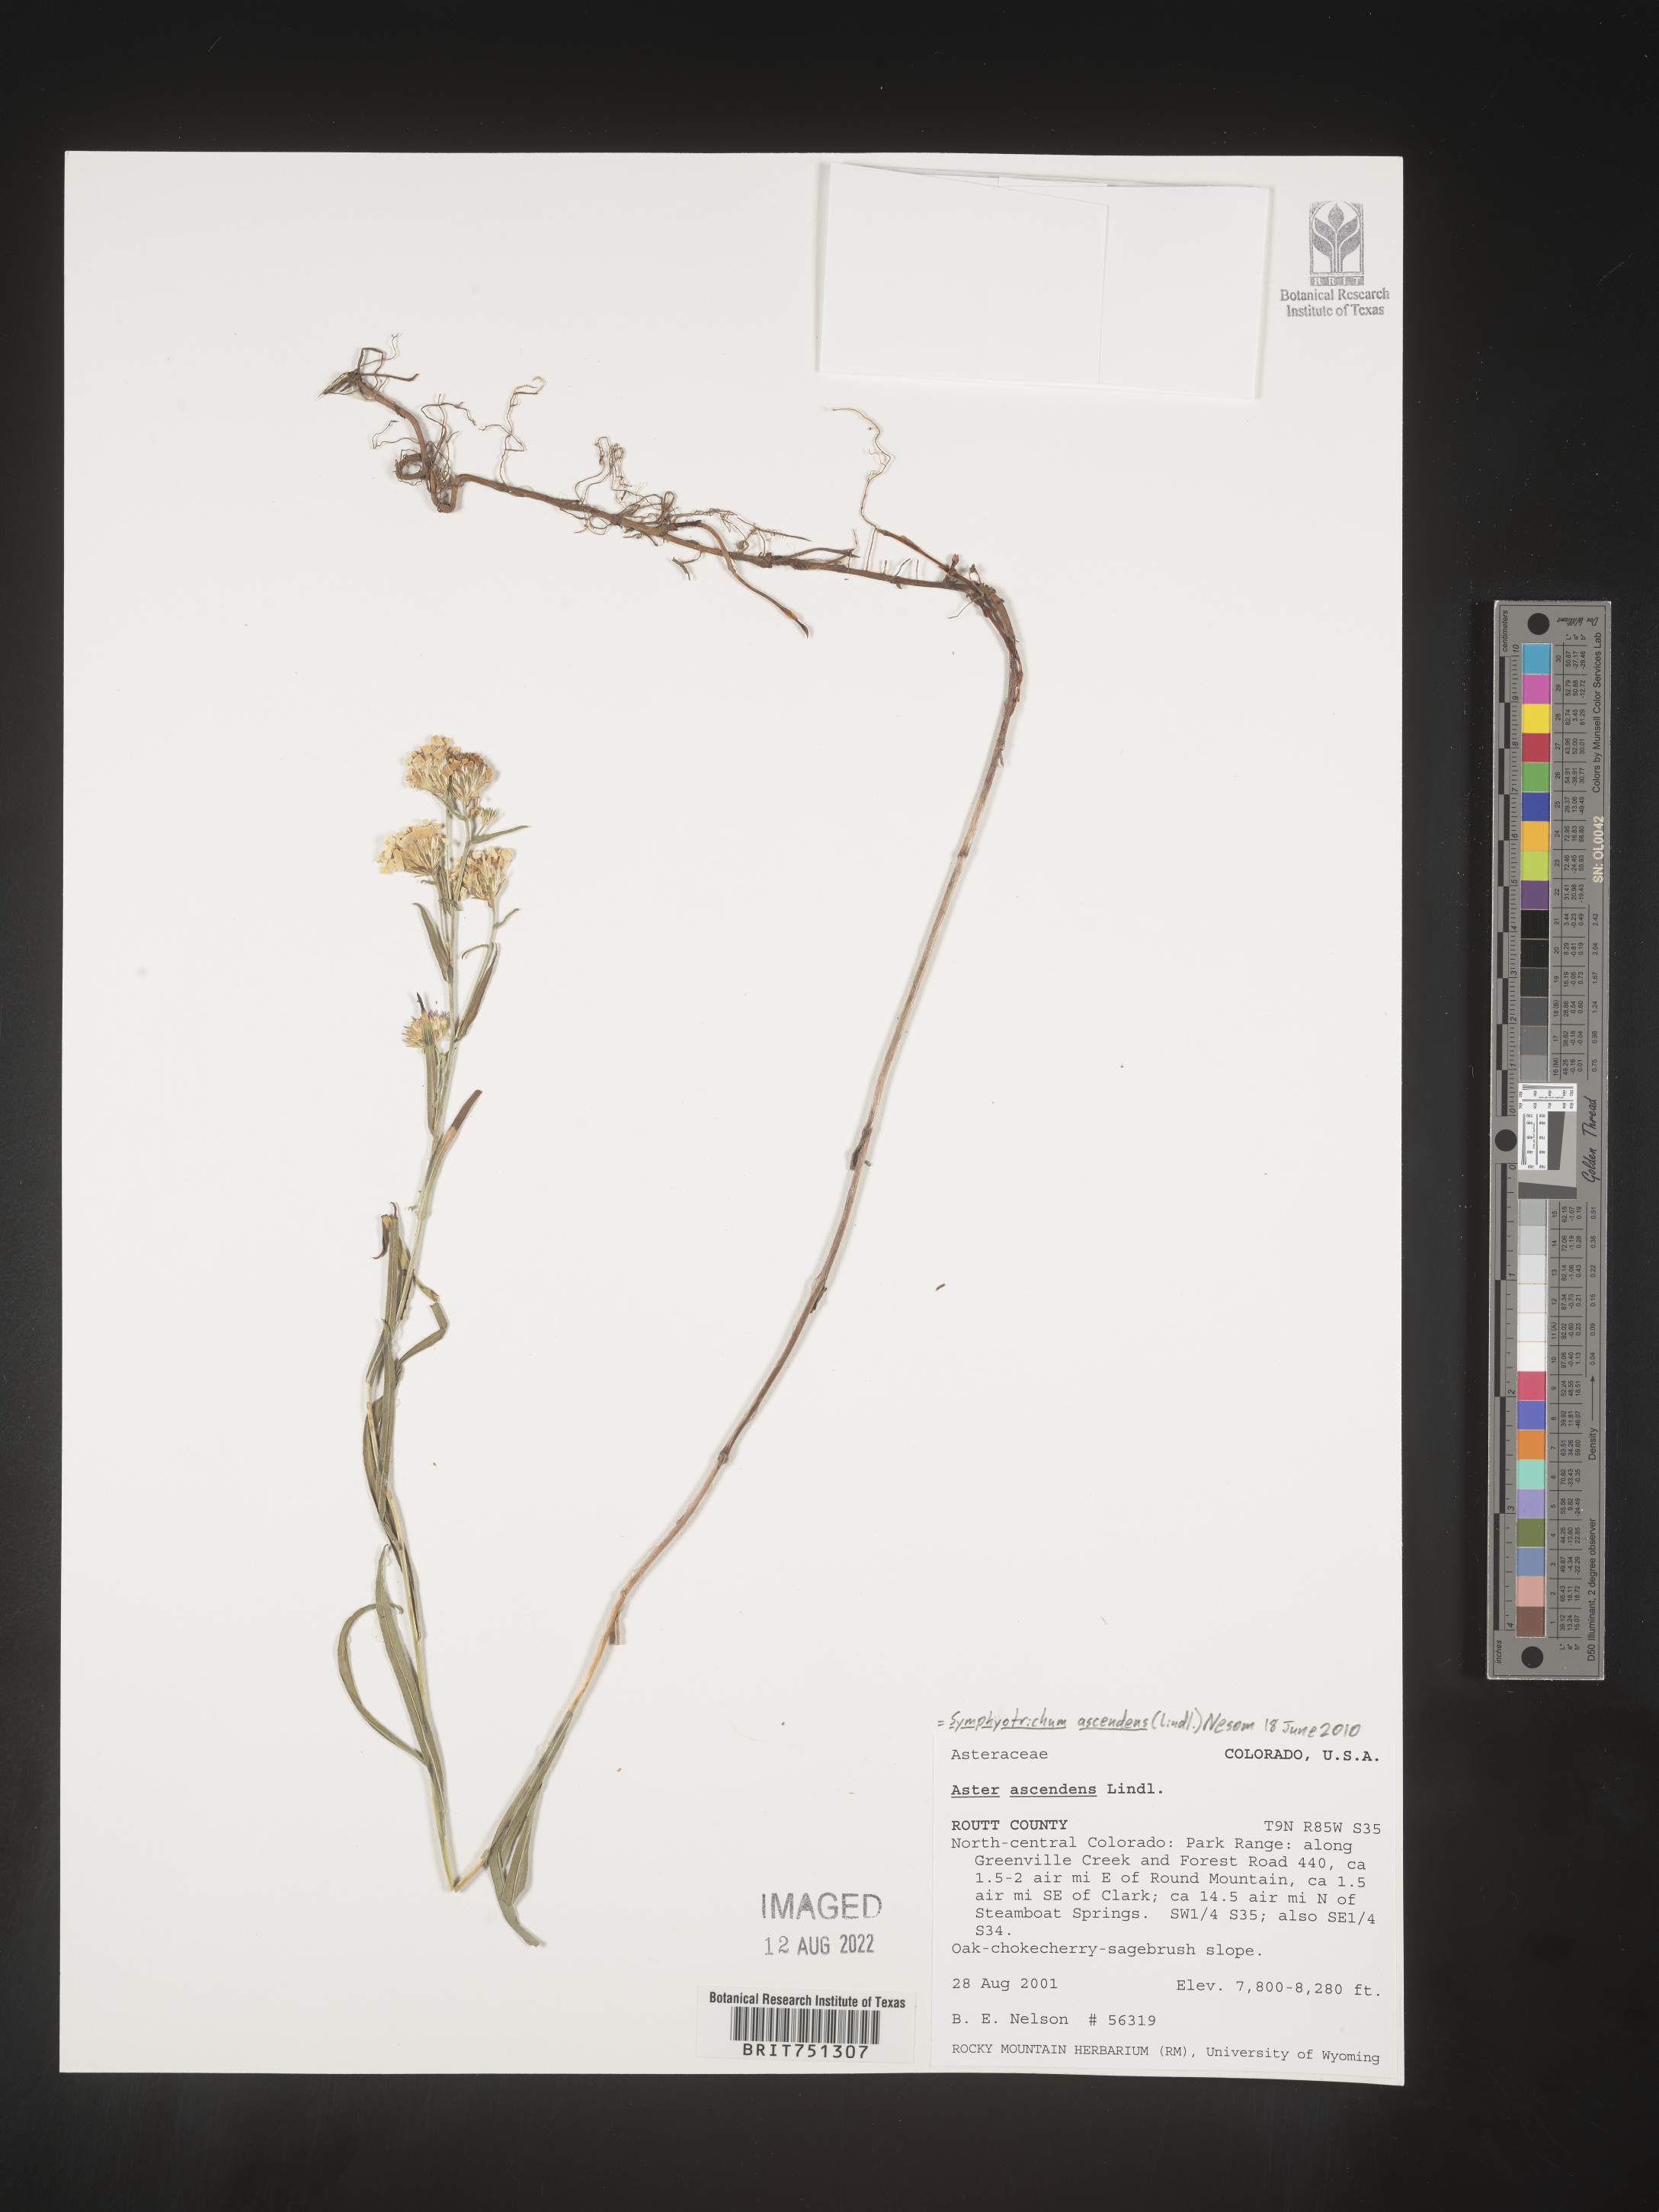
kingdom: Plantae
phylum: Tracheophyta
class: Magnoliopsida
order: Asterales
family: Asteraceae
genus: Symphyotrichum
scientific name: Symphyotrichum ascendens
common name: Intermountain aster
